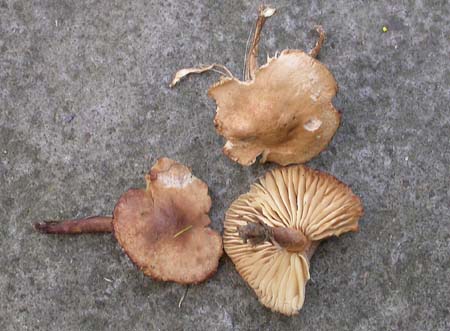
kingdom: Fungi
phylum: Basidiomycota
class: Agaricomycetes
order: Agaricales
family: Tricholomataceae
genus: Dermoloma
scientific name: Dermoloma pseudocuneifolium
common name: mark-nonnehat
